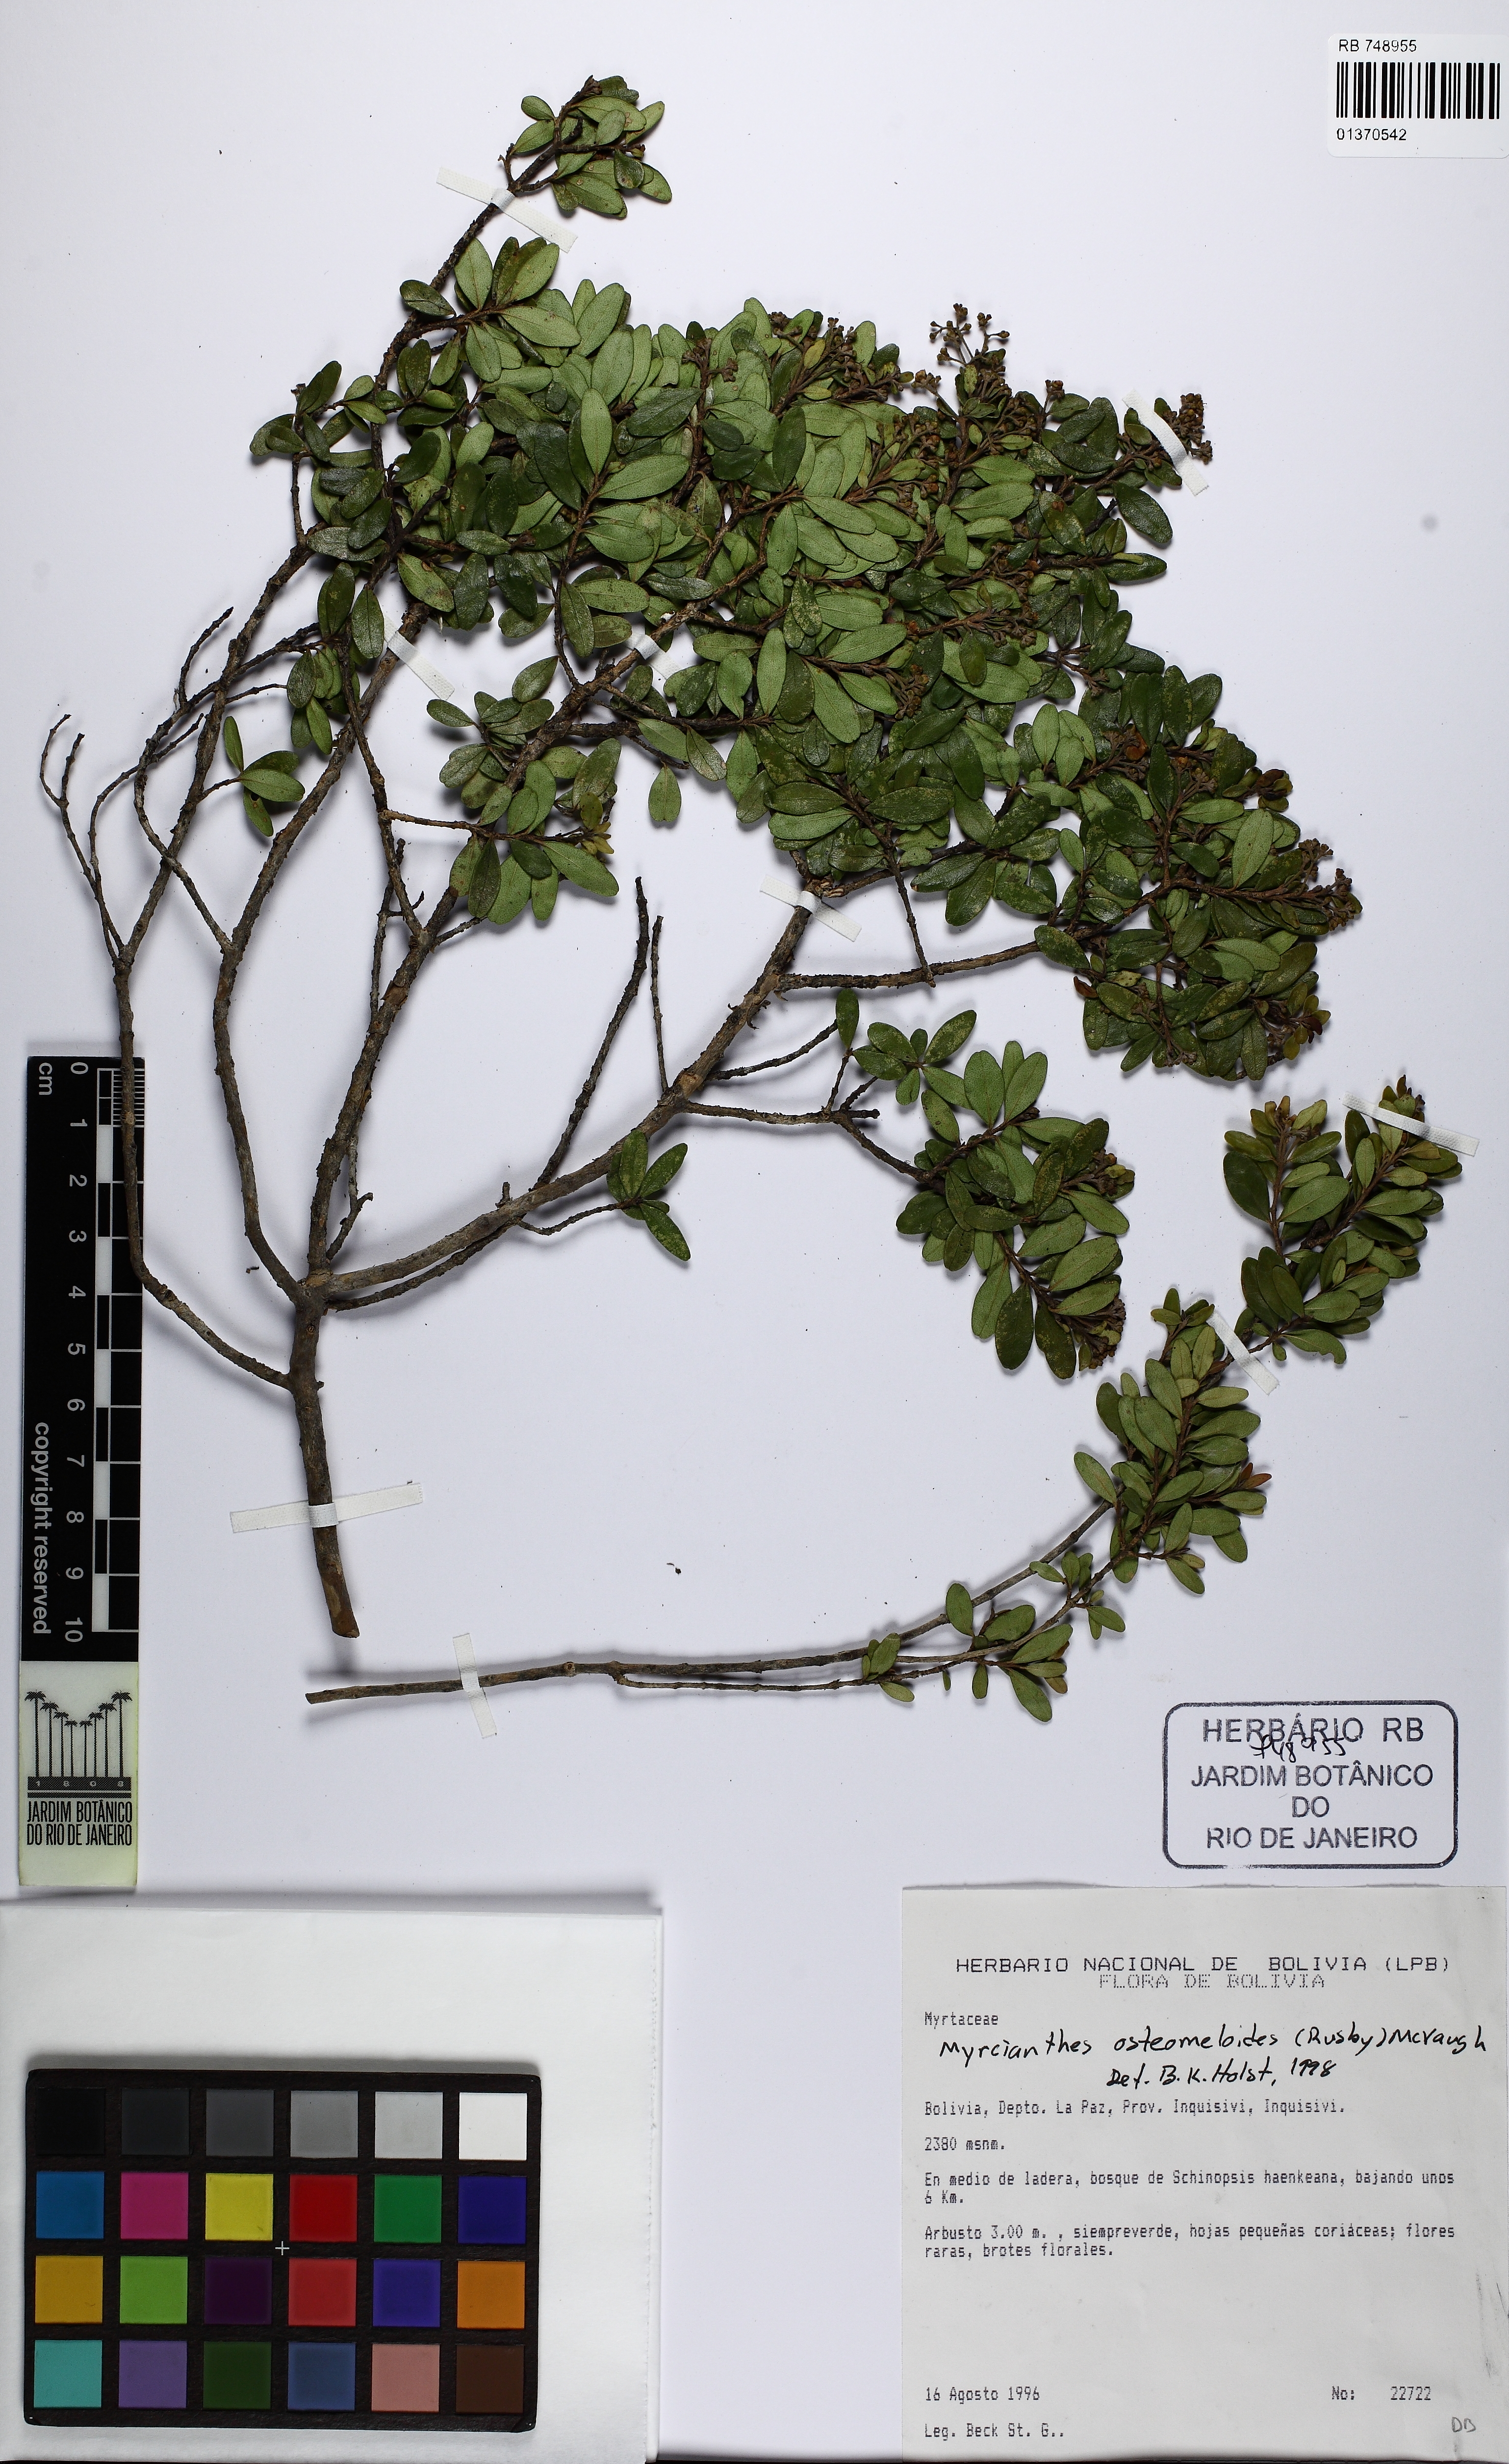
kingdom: Plantae
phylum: Tracheophyta
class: Magnoliopsida
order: Myrtales
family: Myrtaceae
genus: Myrcianthes
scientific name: Myrcianthes osteomeloides
